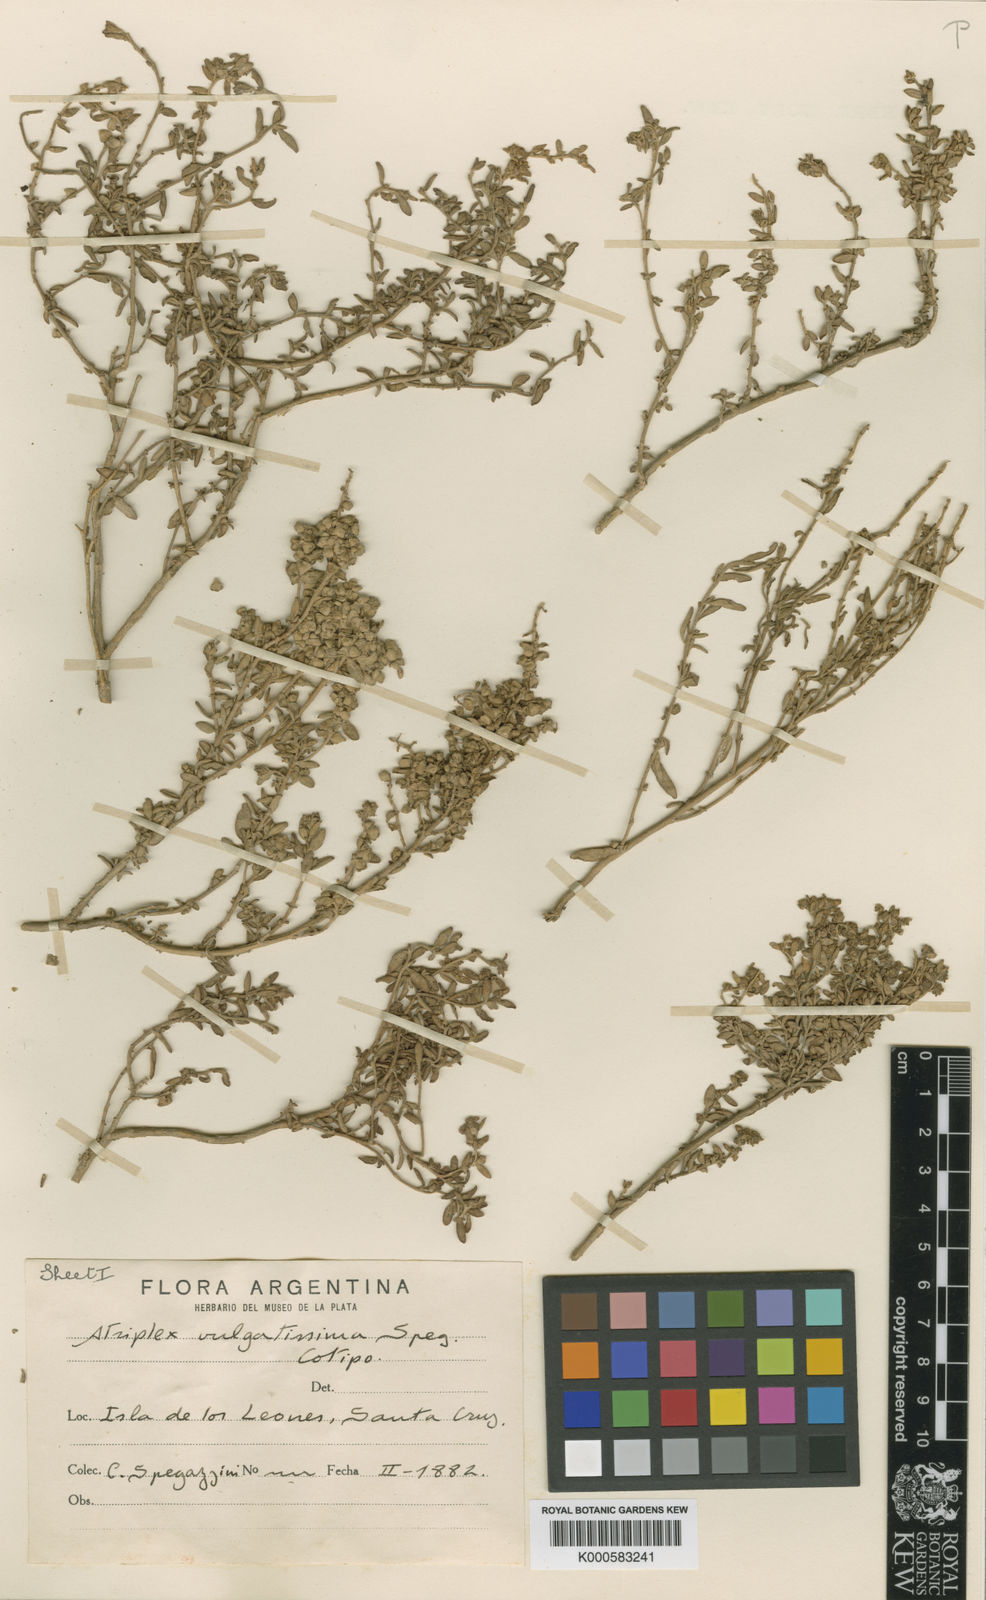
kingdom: Plantae
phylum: Tracheophyta
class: Magnoliopsida
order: Caryophyllales
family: Amaranthaceae
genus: Atriplex
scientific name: Atriplex vulgatissima
